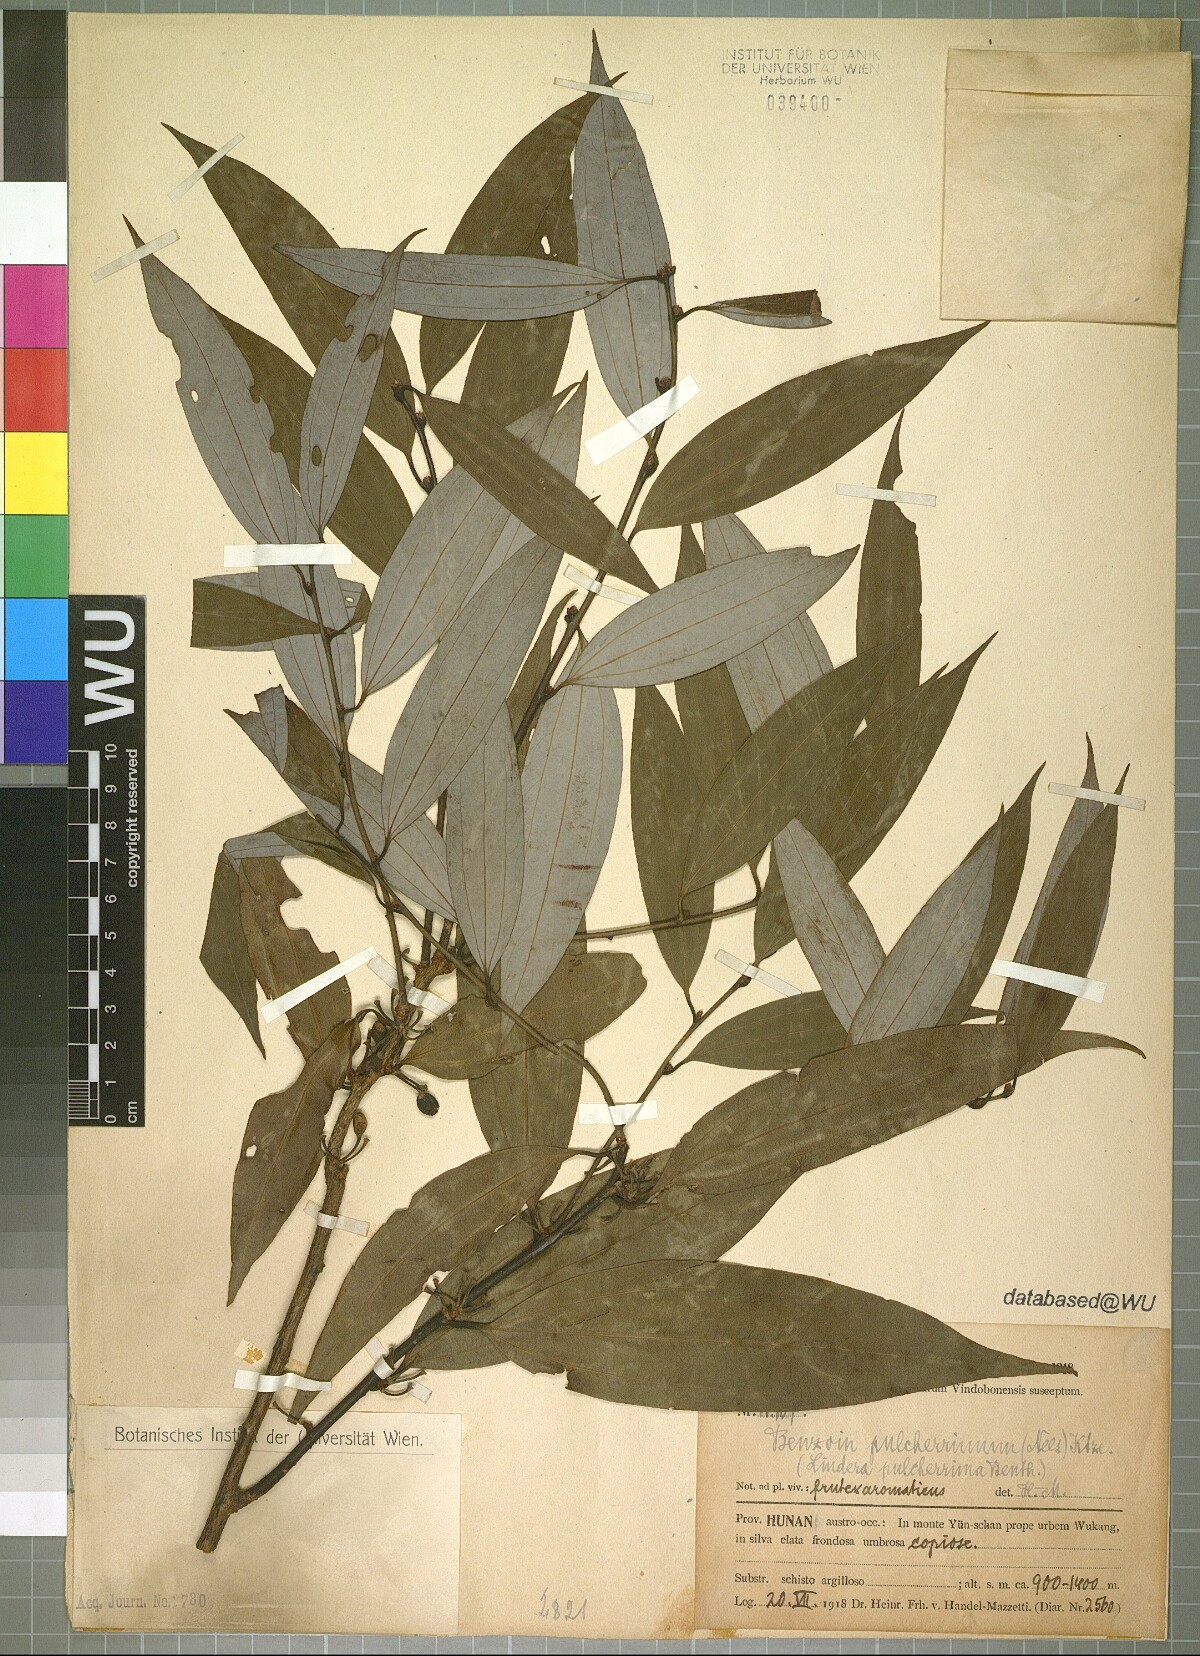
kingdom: Plantae
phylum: Tracheophyta
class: Magnoliopsida
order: Laurales
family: Lauraceae
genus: Lindera
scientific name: Lindera pulcherrima
